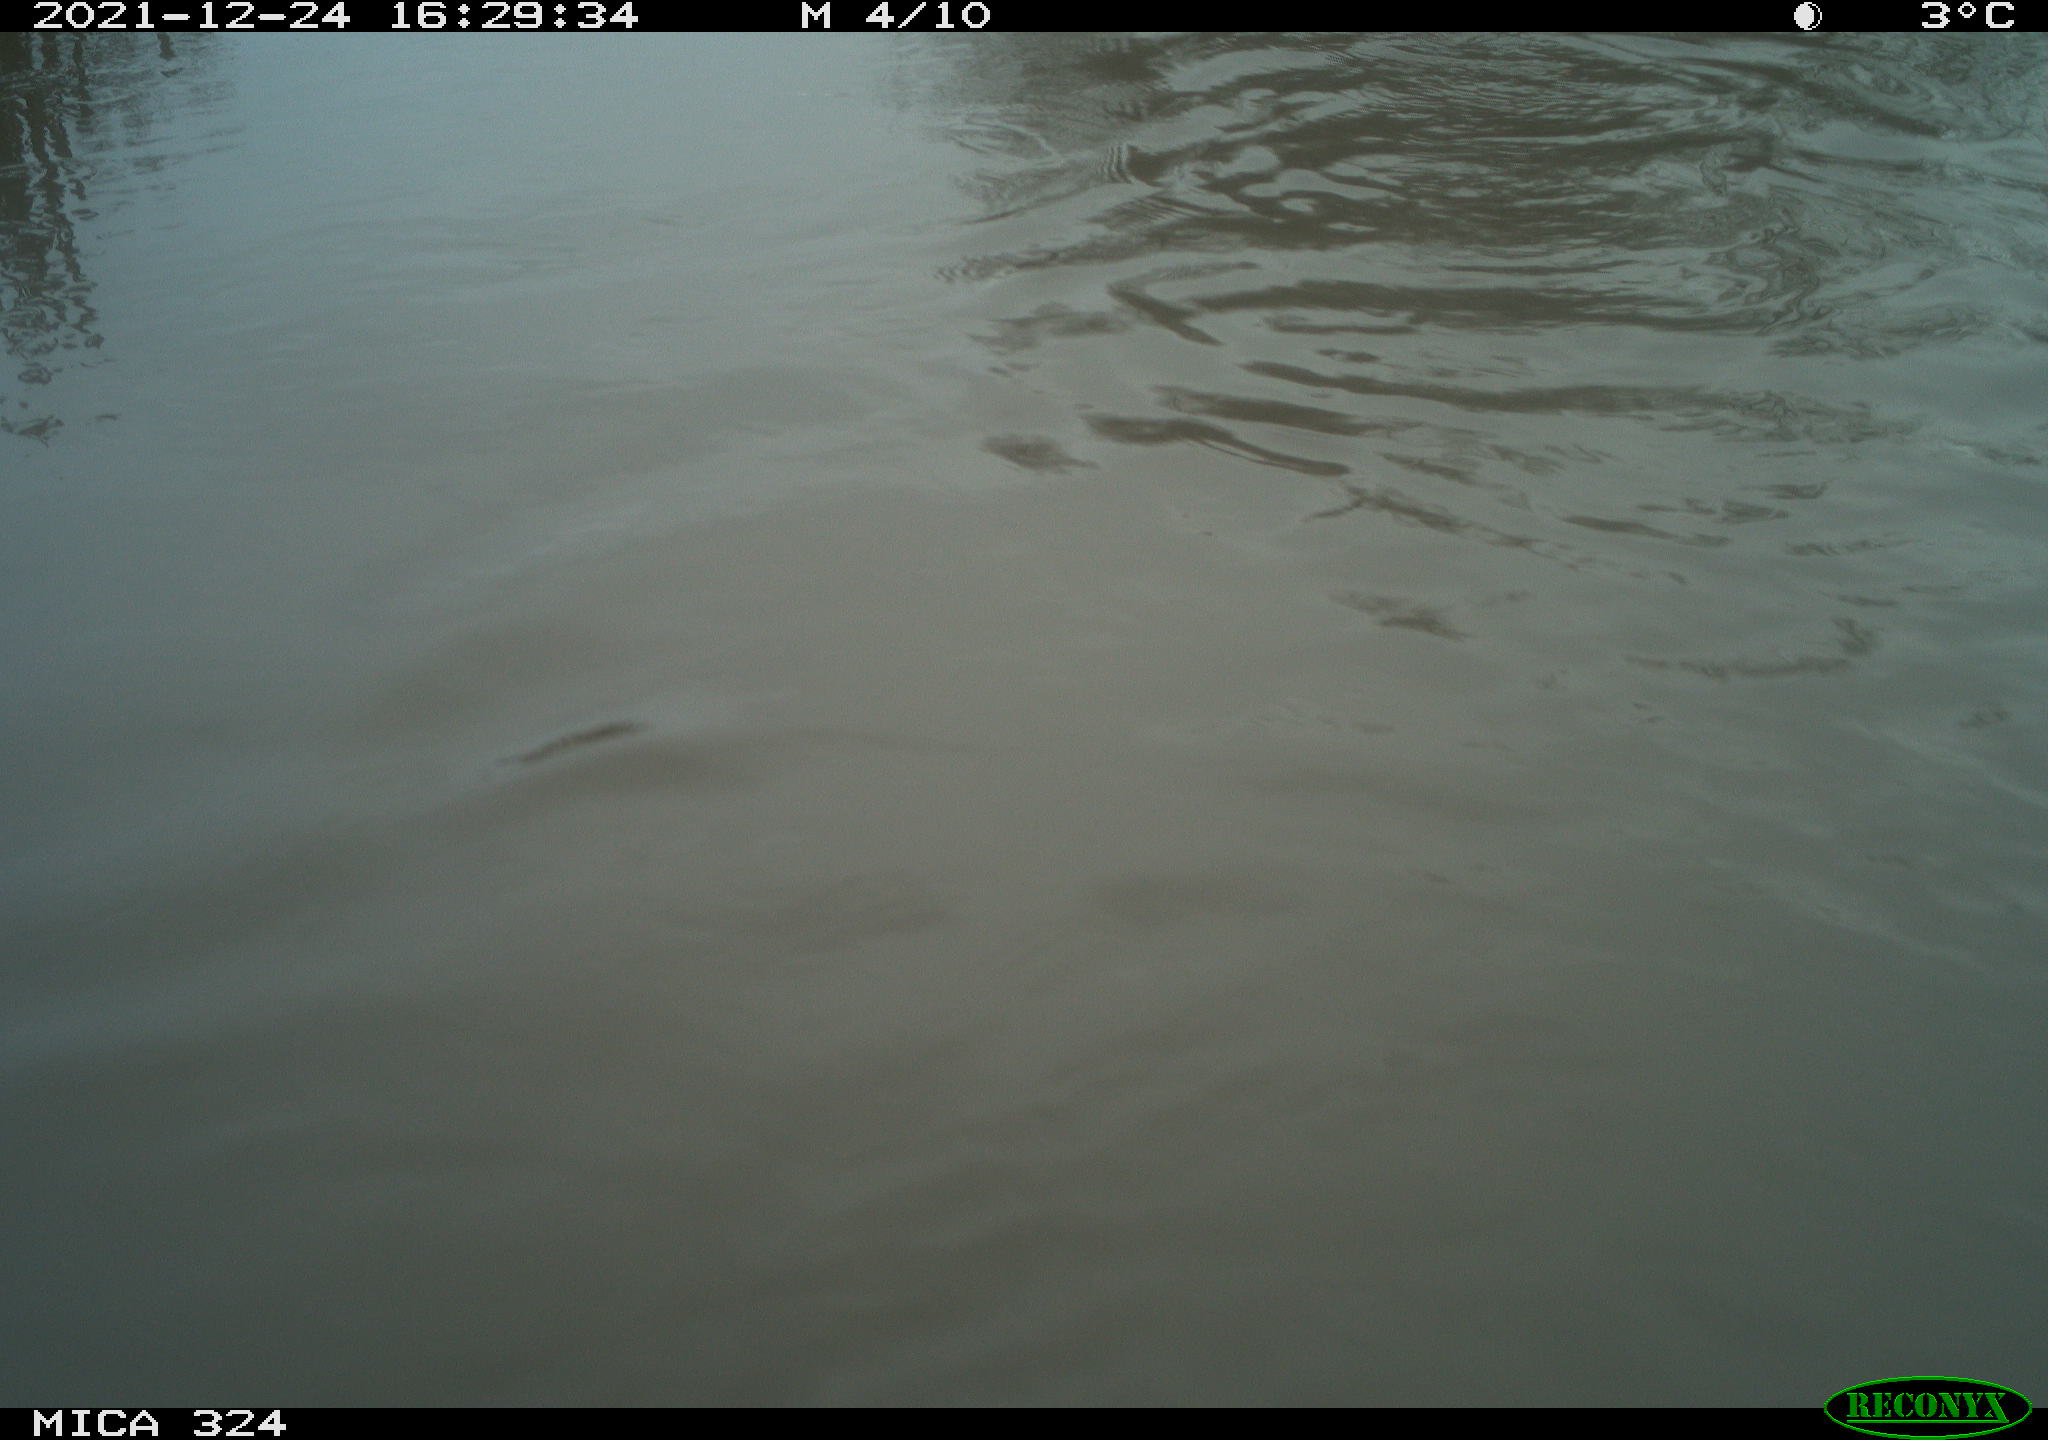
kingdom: Animalia
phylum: Chordata
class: Mammalia
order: Rodentia
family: Cricetidae
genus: Ondatra
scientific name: Ondatra zibethicus
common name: Muskrat
